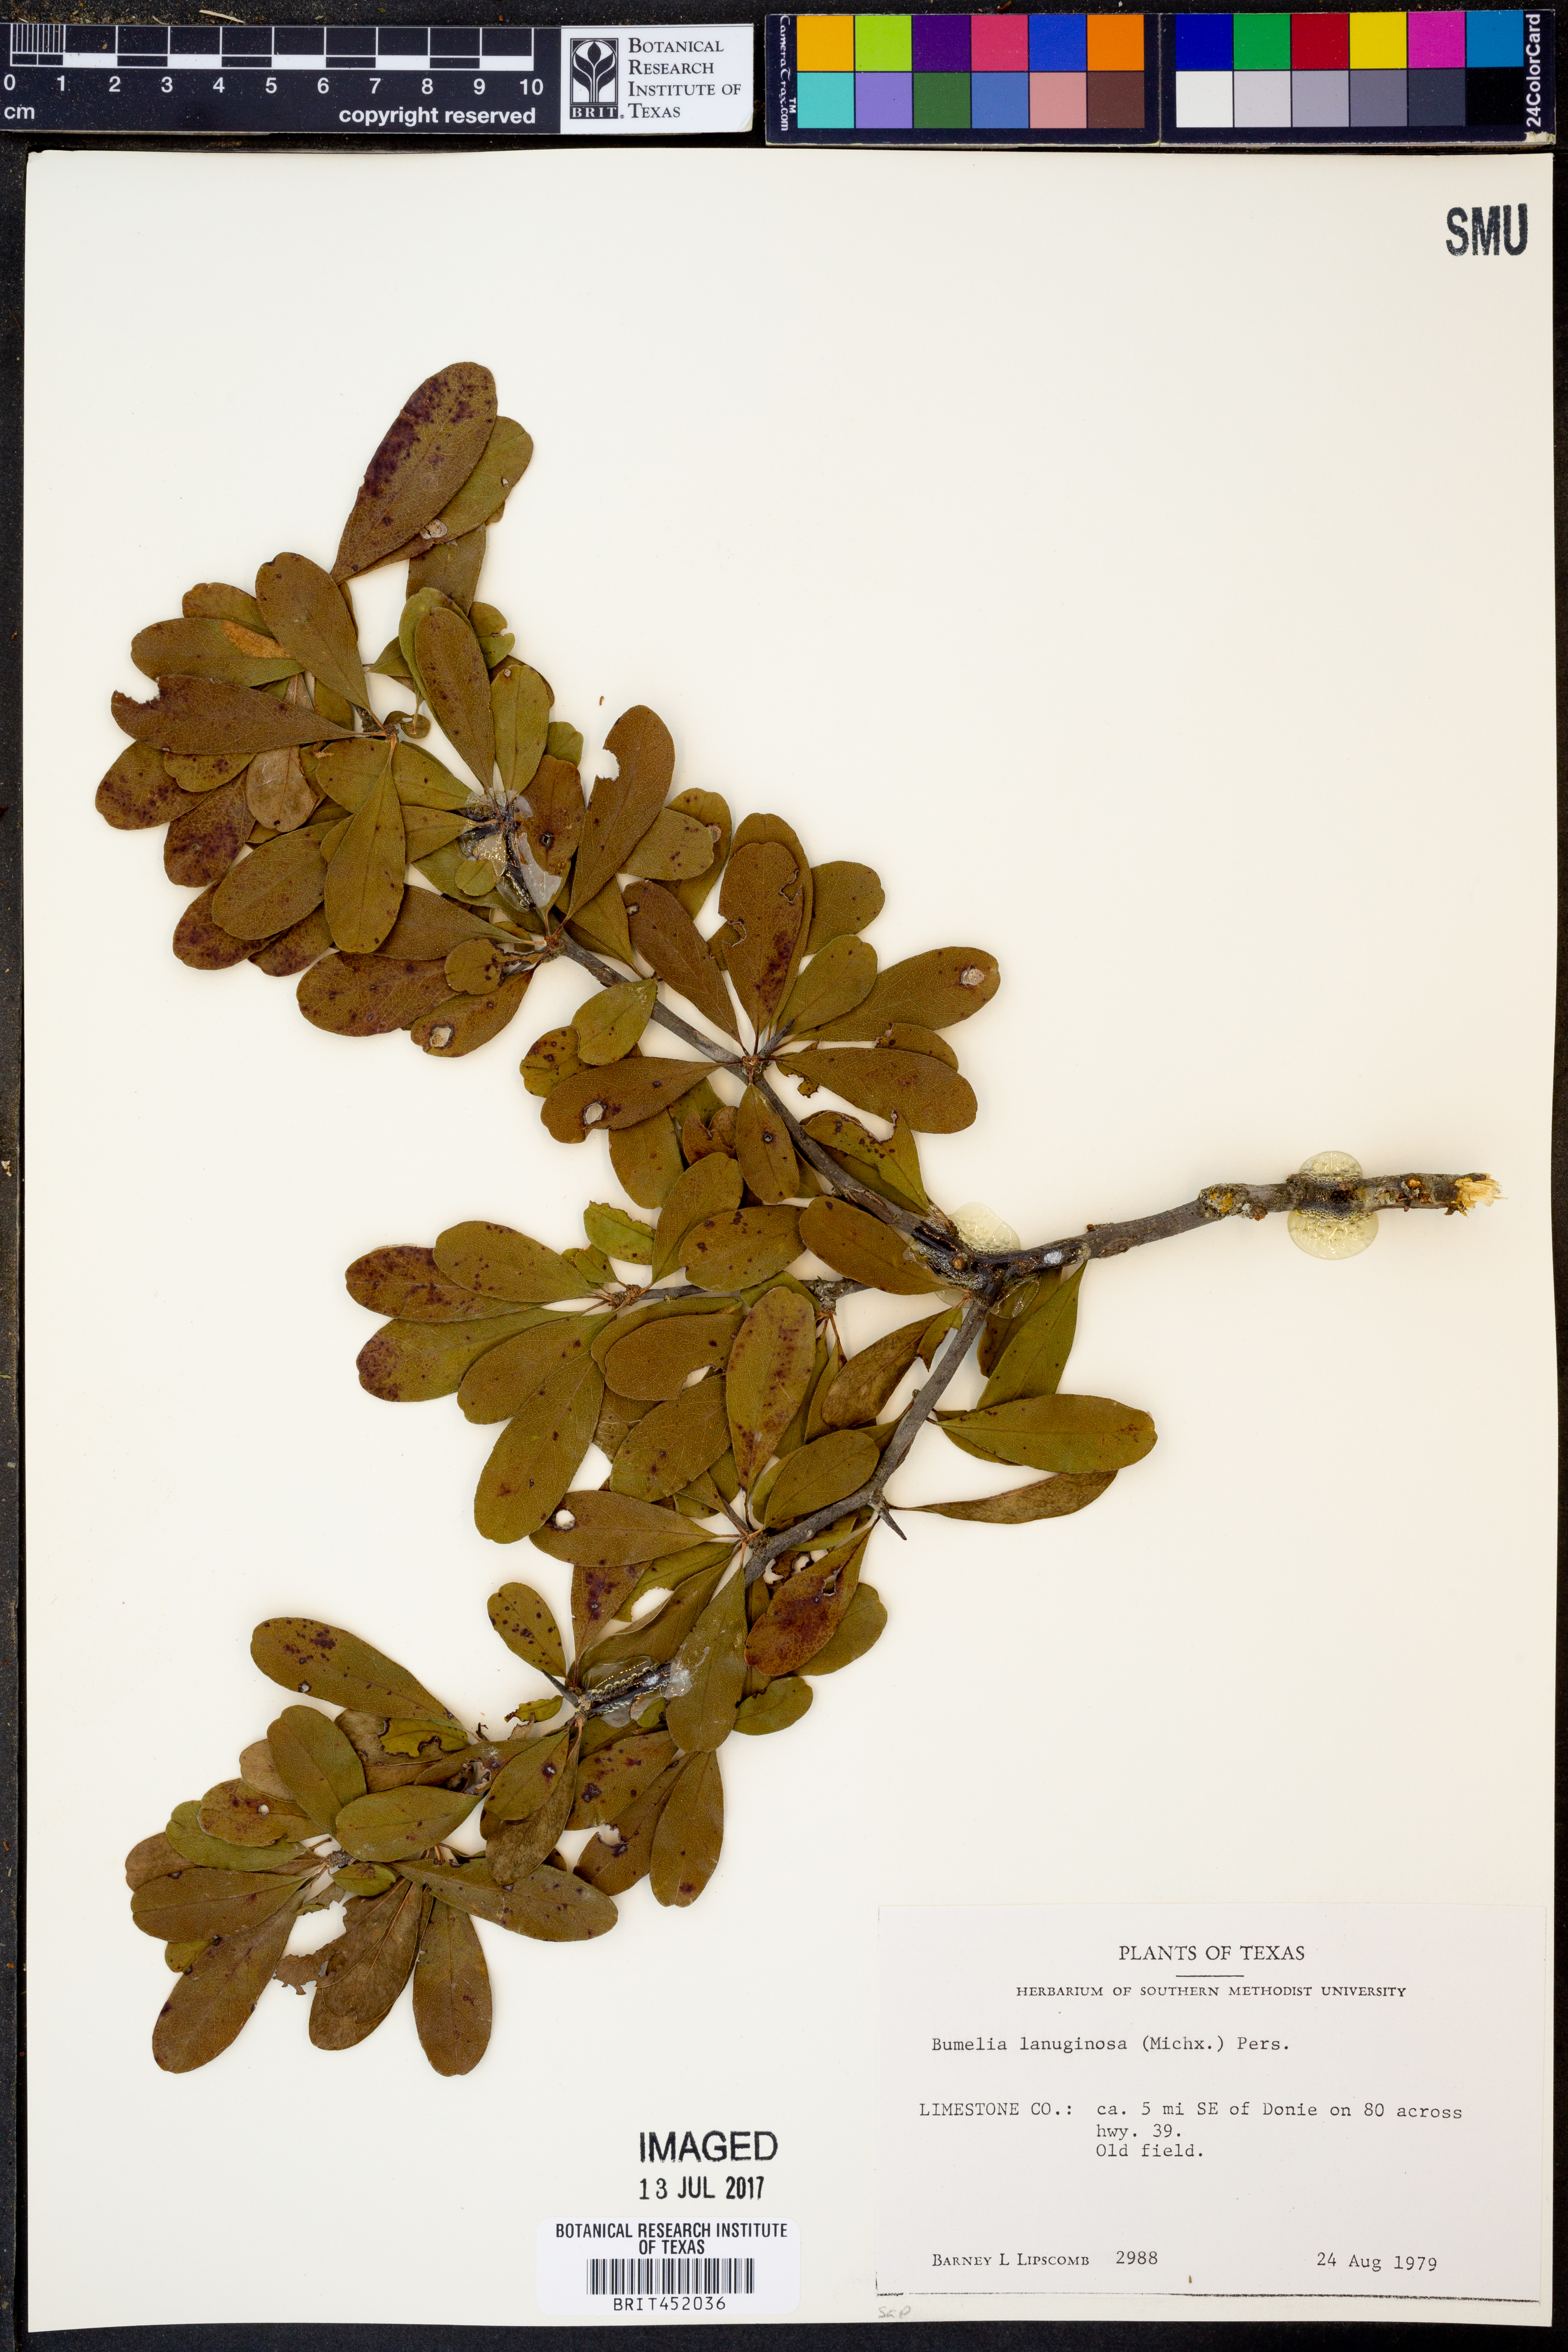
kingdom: Plantae
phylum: Tracheophyta
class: Magnoliopsida
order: Ericales
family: Sapotaceae
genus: Sideroxylon
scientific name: Sideroxylon lanuginosum
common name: Chittamwood
